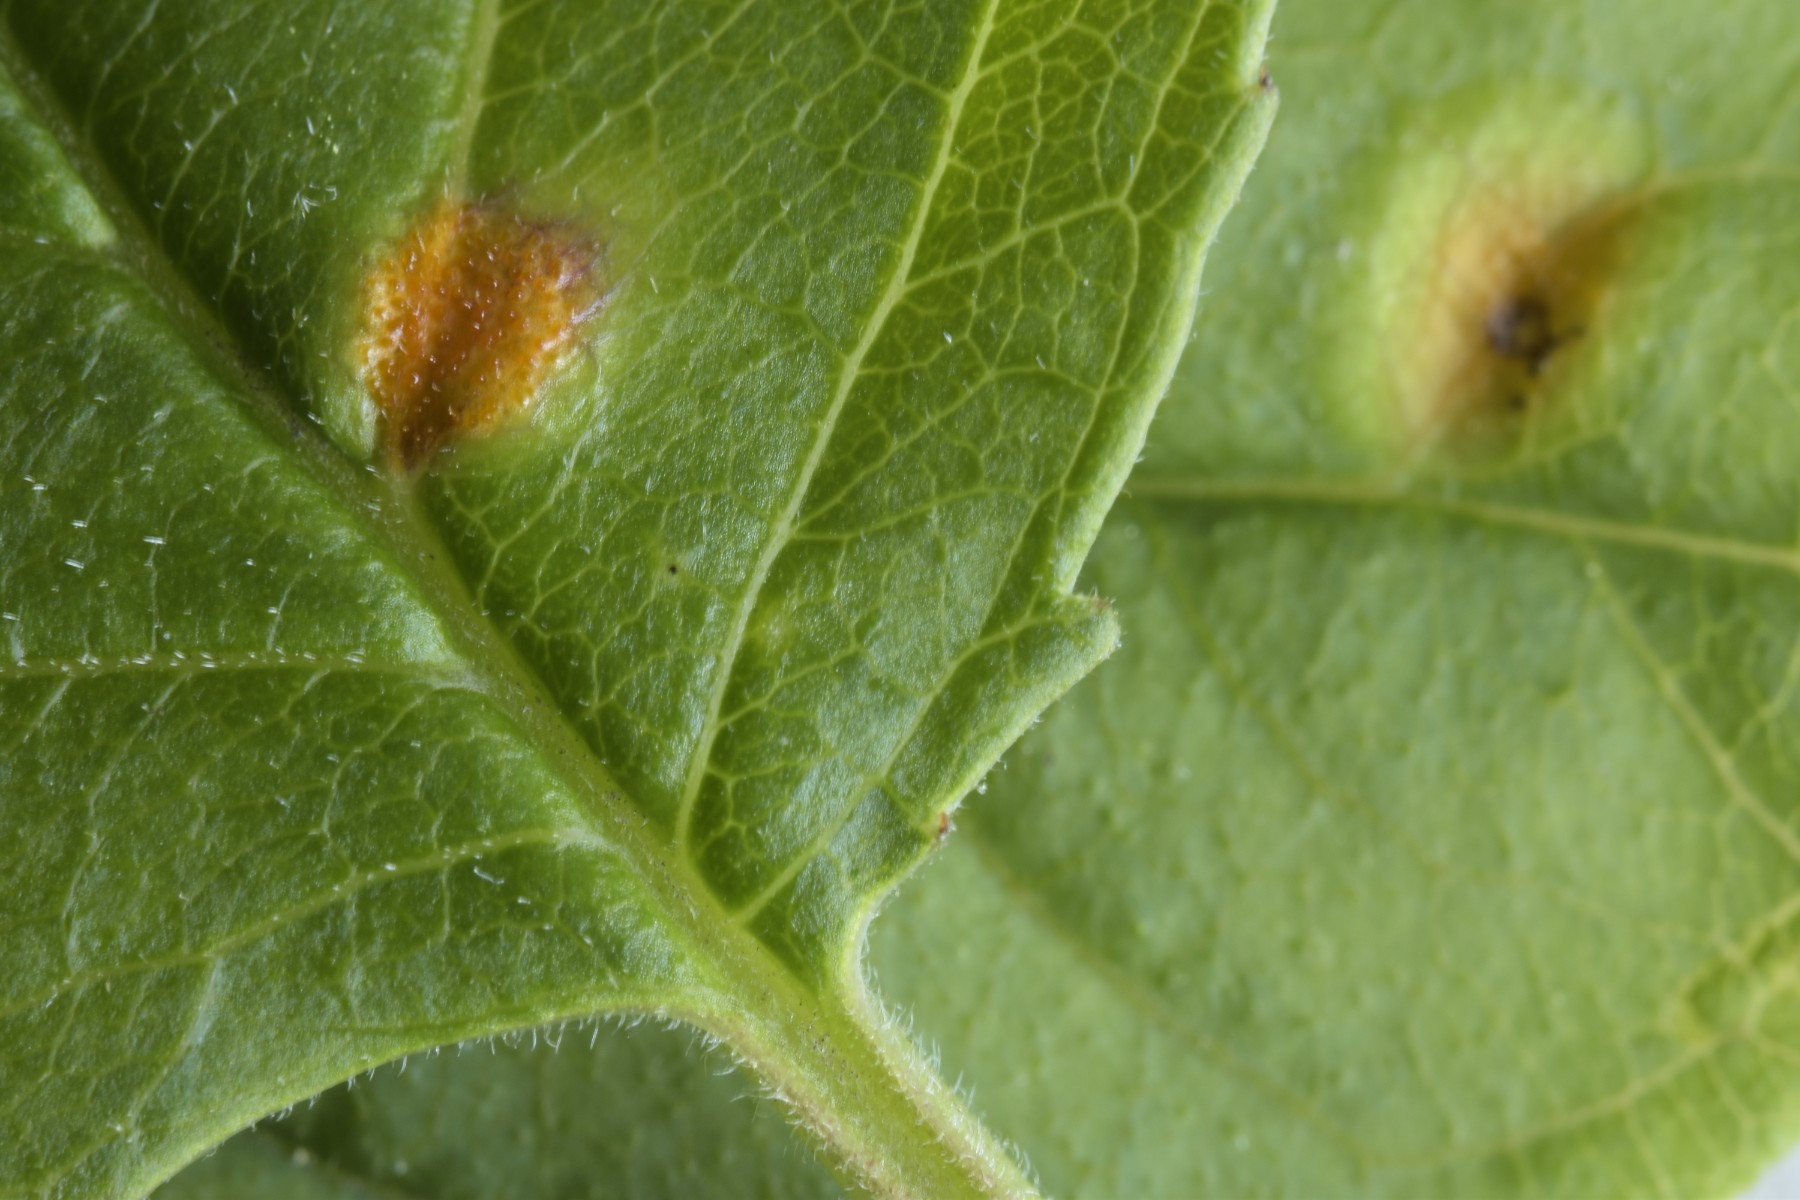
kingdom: Fungi
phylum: Basidiomycota
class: Pucciniomycetes
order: Pucciniales
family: Pucciniaceae
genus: Puccinia
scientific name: Puccinia coronata
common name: Crown rust
